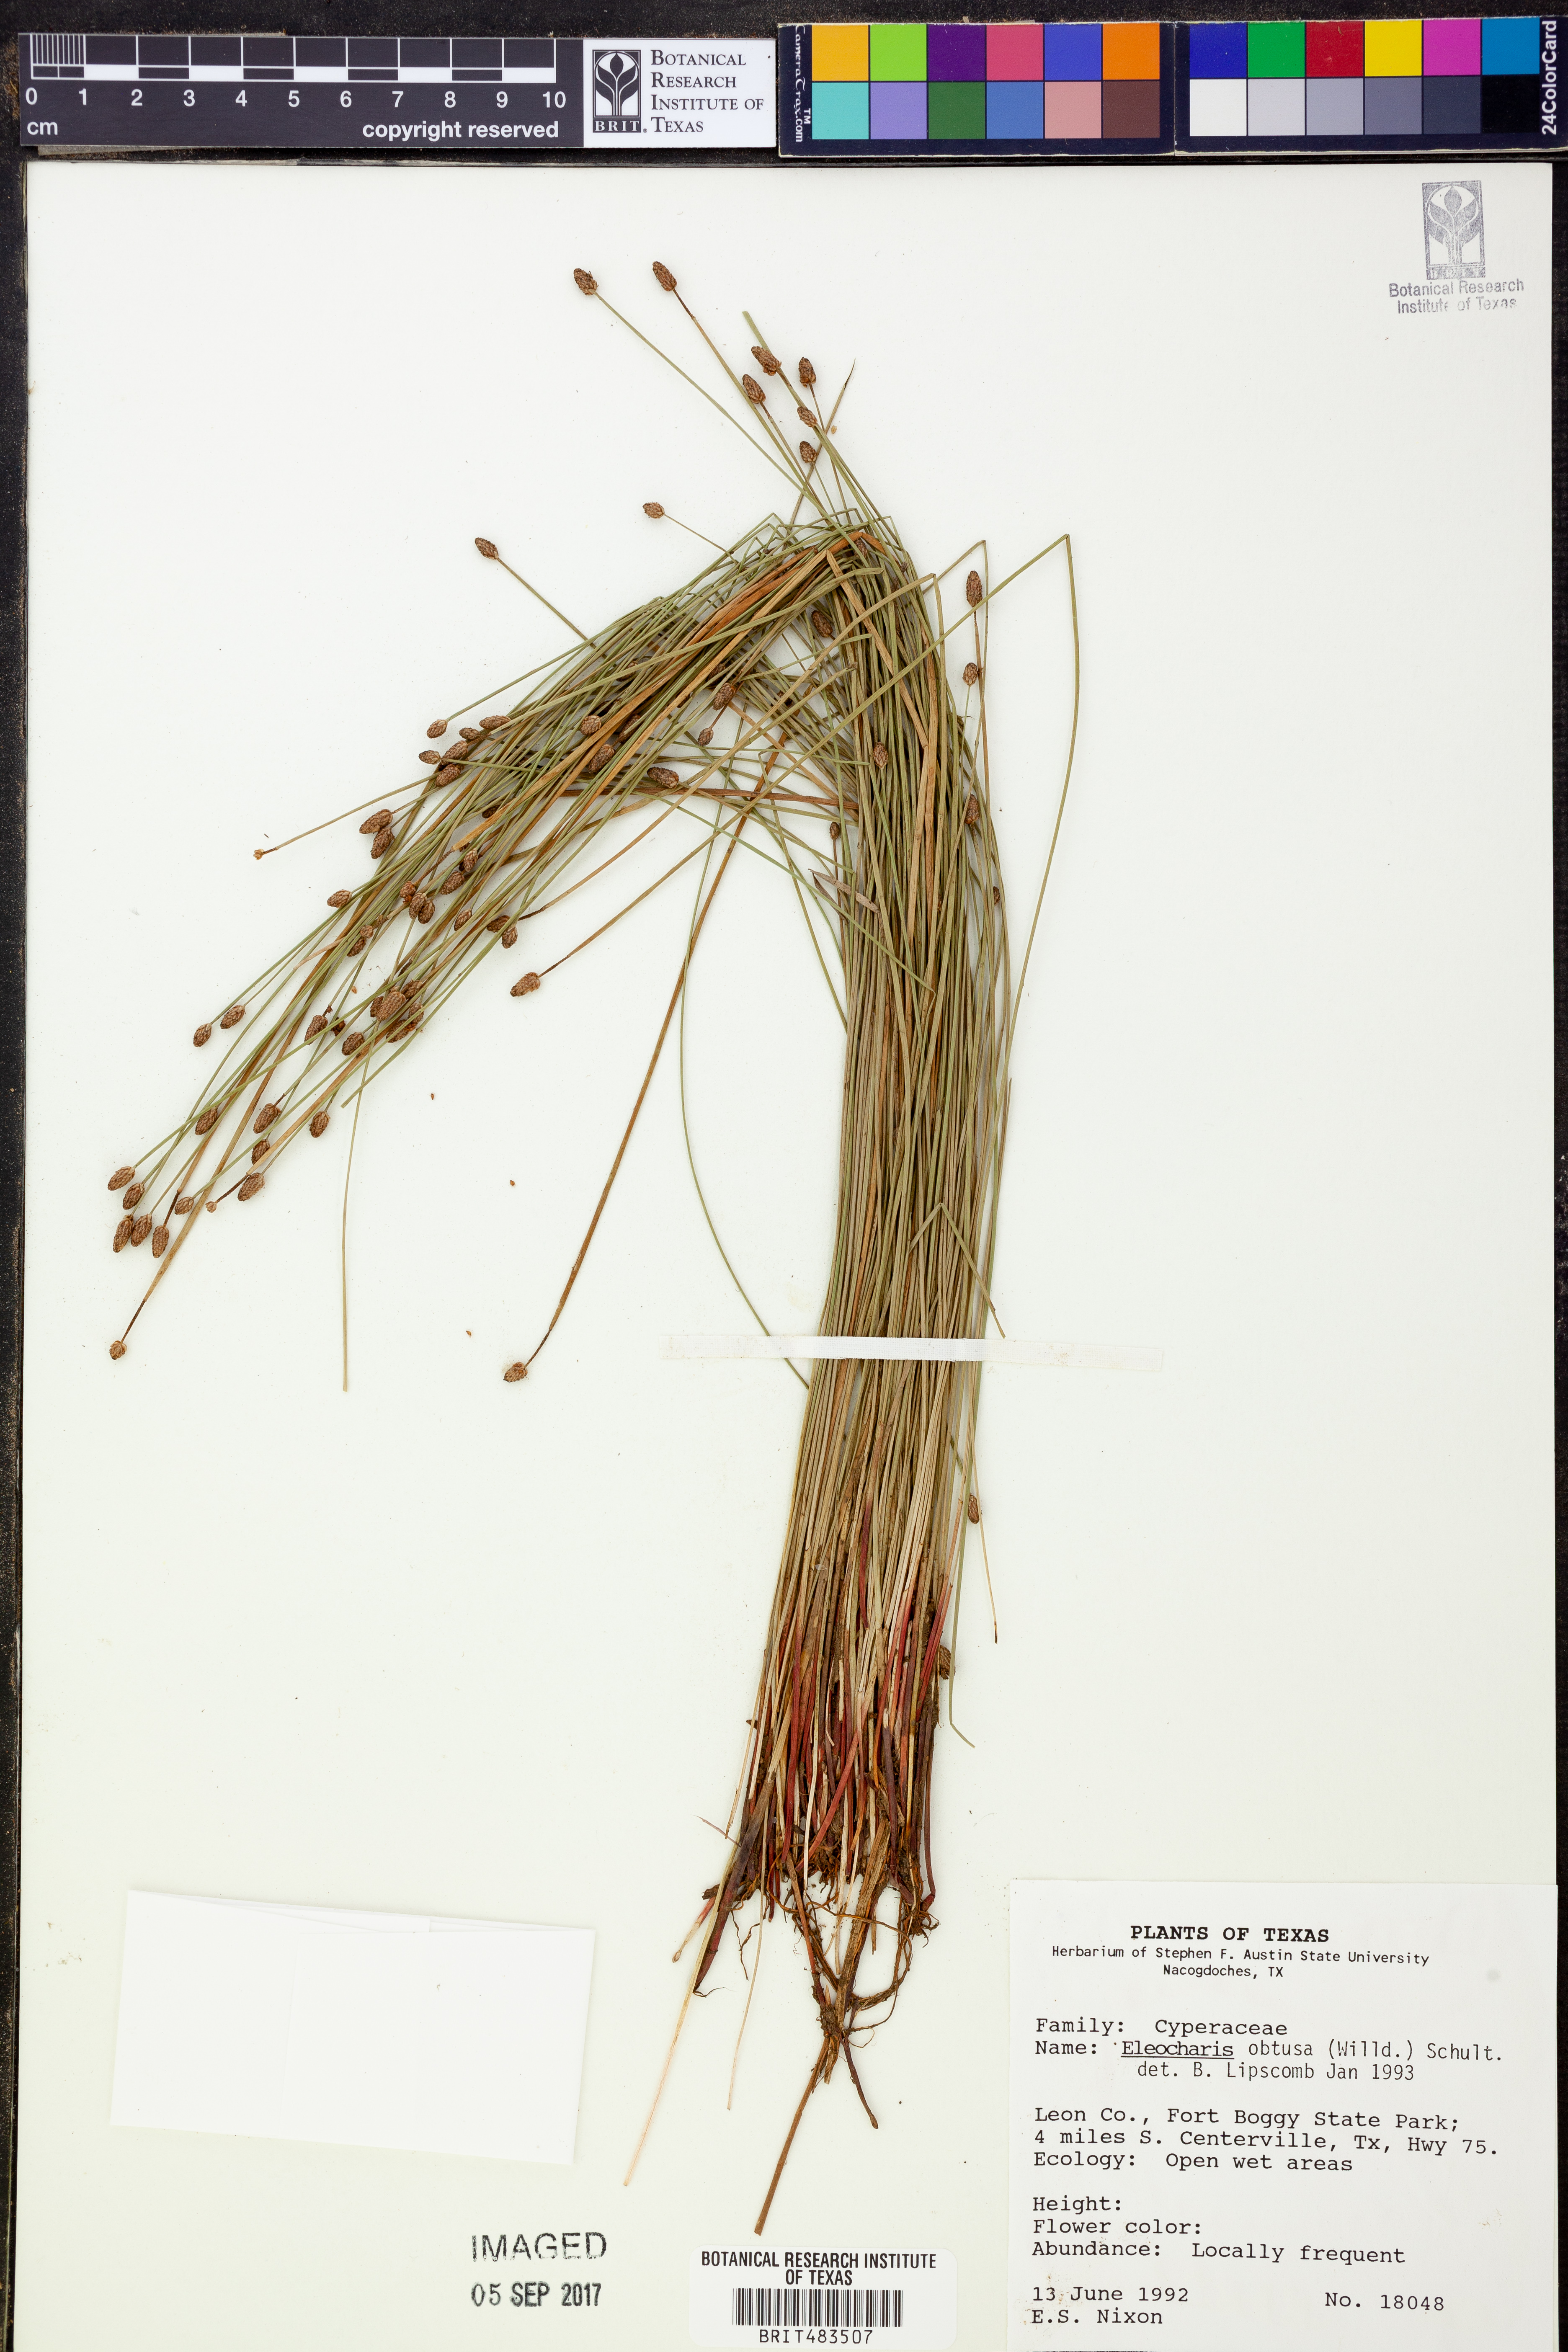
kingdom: Plantae
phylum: Tracheophyta
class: Liliopsida
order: Poales
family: Cyperaceae
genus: Eleocharis
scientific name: Eleocharis obtusa
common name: Blunt spikerush
